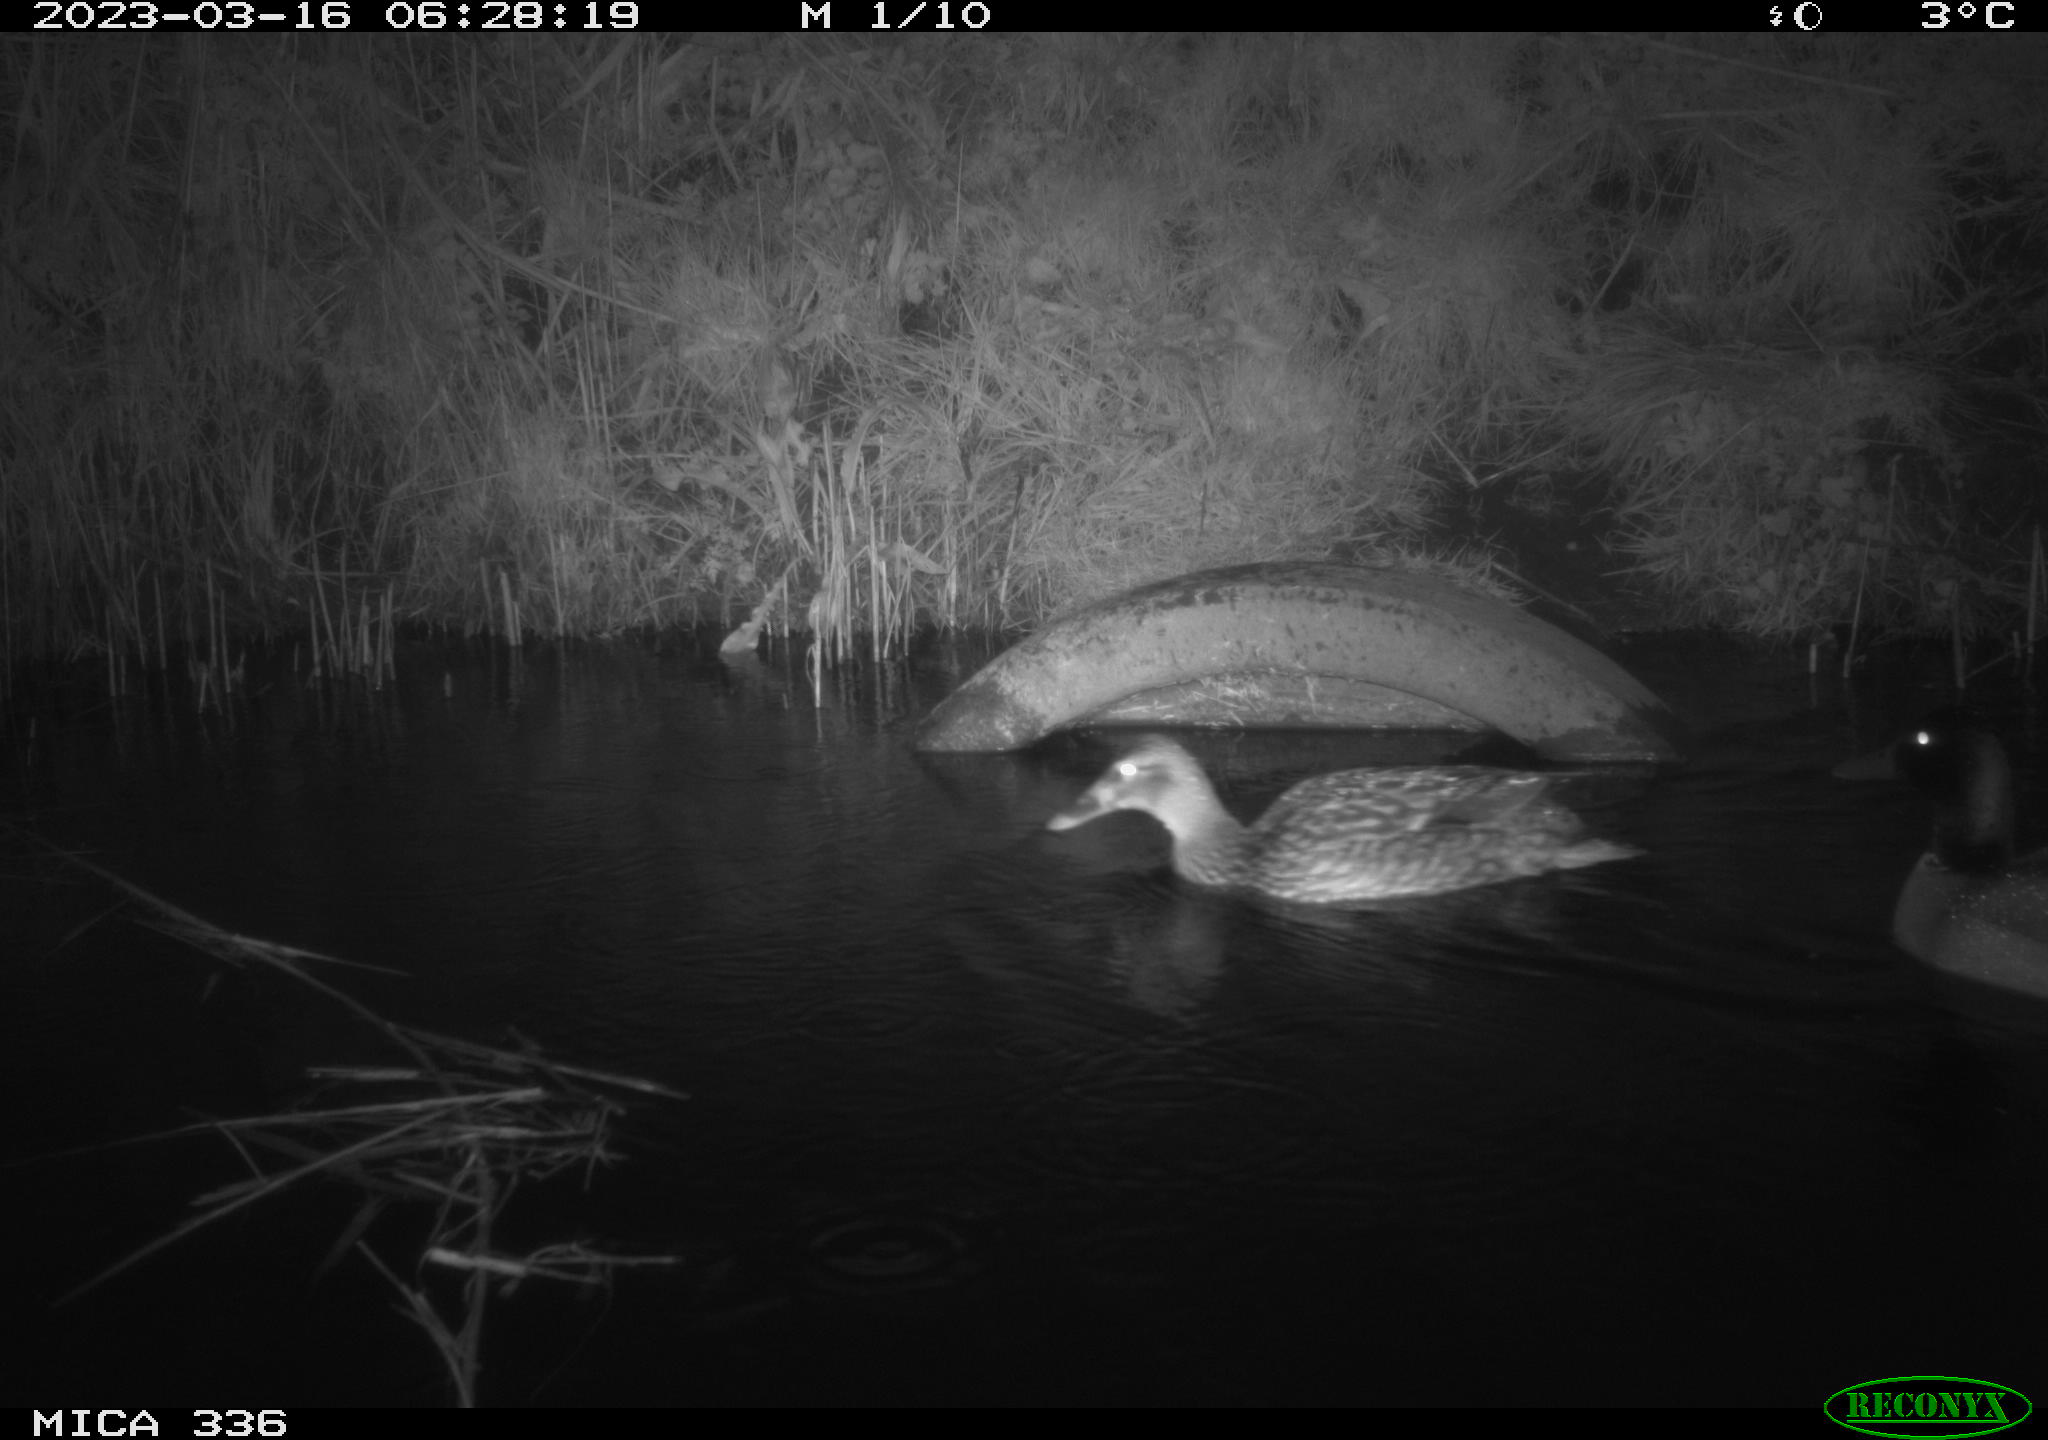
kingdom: Animalia
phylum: Chordata
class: Aves
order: Anseriformes
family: Anatidae
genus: Anas
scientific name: Anas
